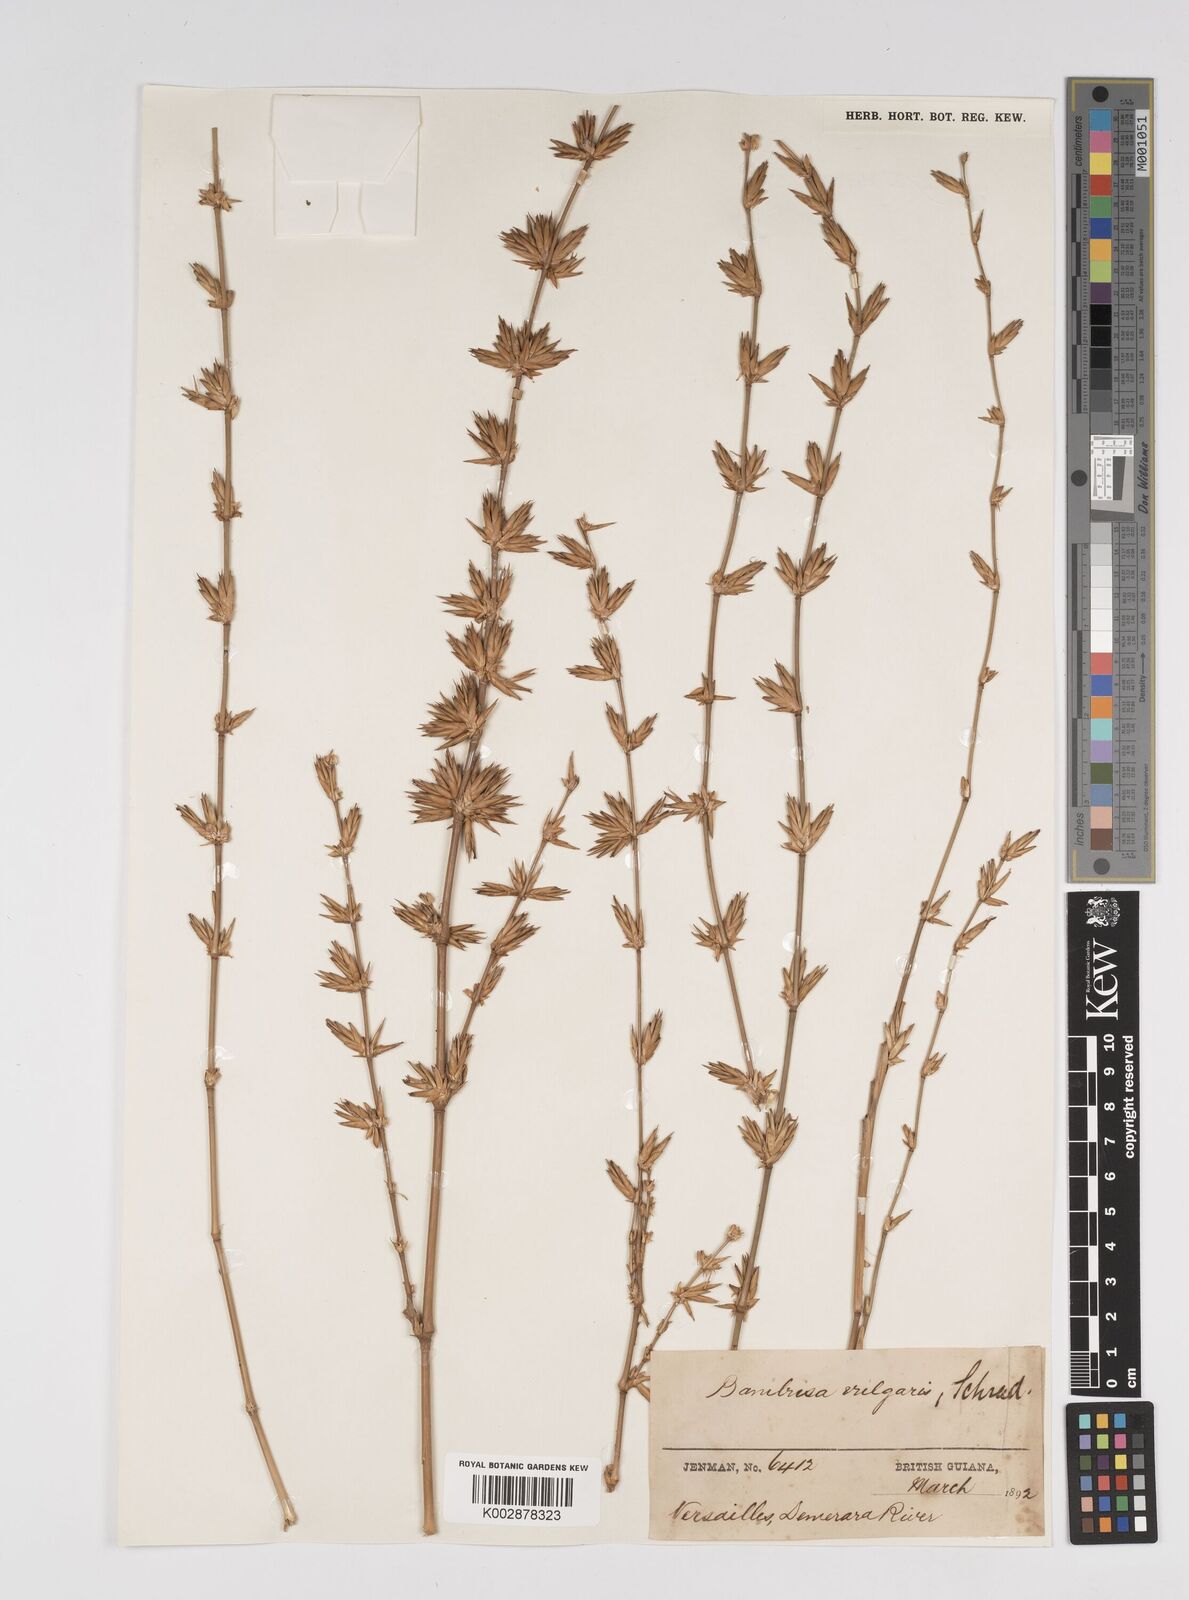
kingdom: Plantae
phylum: Tracheophyta
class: Liliopsida
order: Poales
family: Poaceae
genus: Bambusa
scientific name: Bambusa vulgaris
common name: Common bamboo
